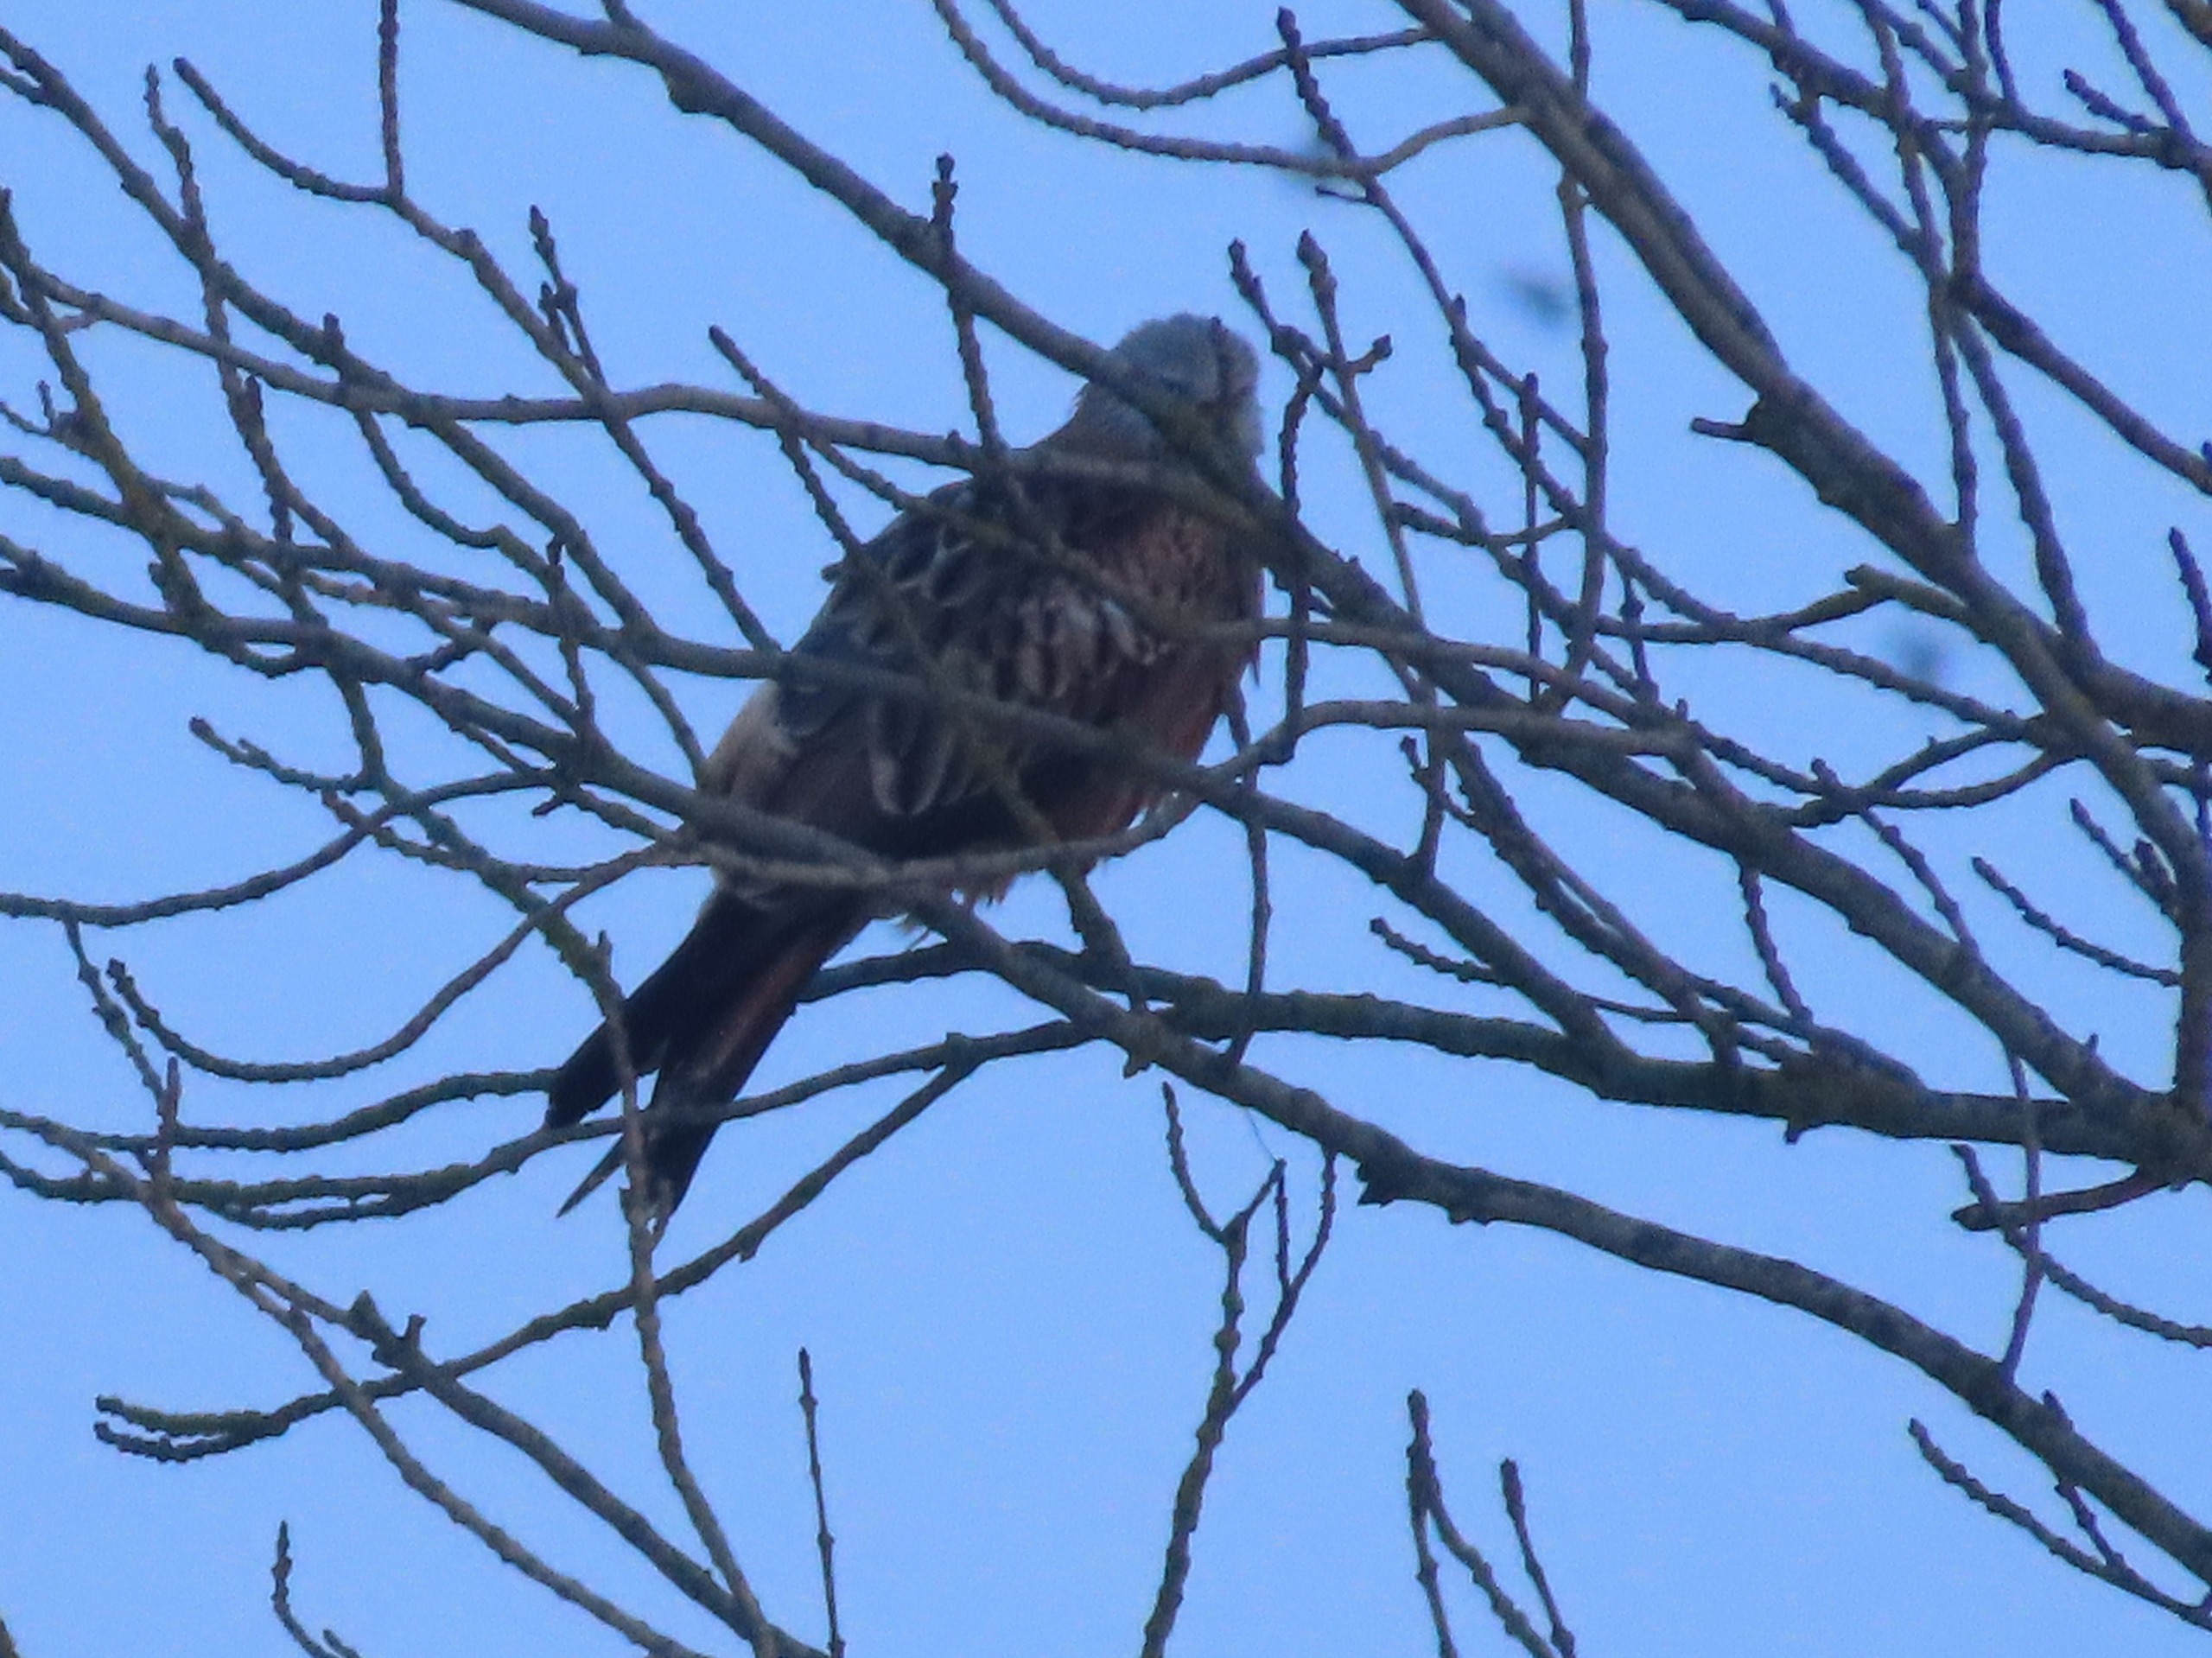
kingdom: Animalia
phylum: Chordata
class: Aves
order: Accipitriformes
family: Accipitridae
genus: Milvus
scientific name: Milvus milvus
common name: Rød glente
